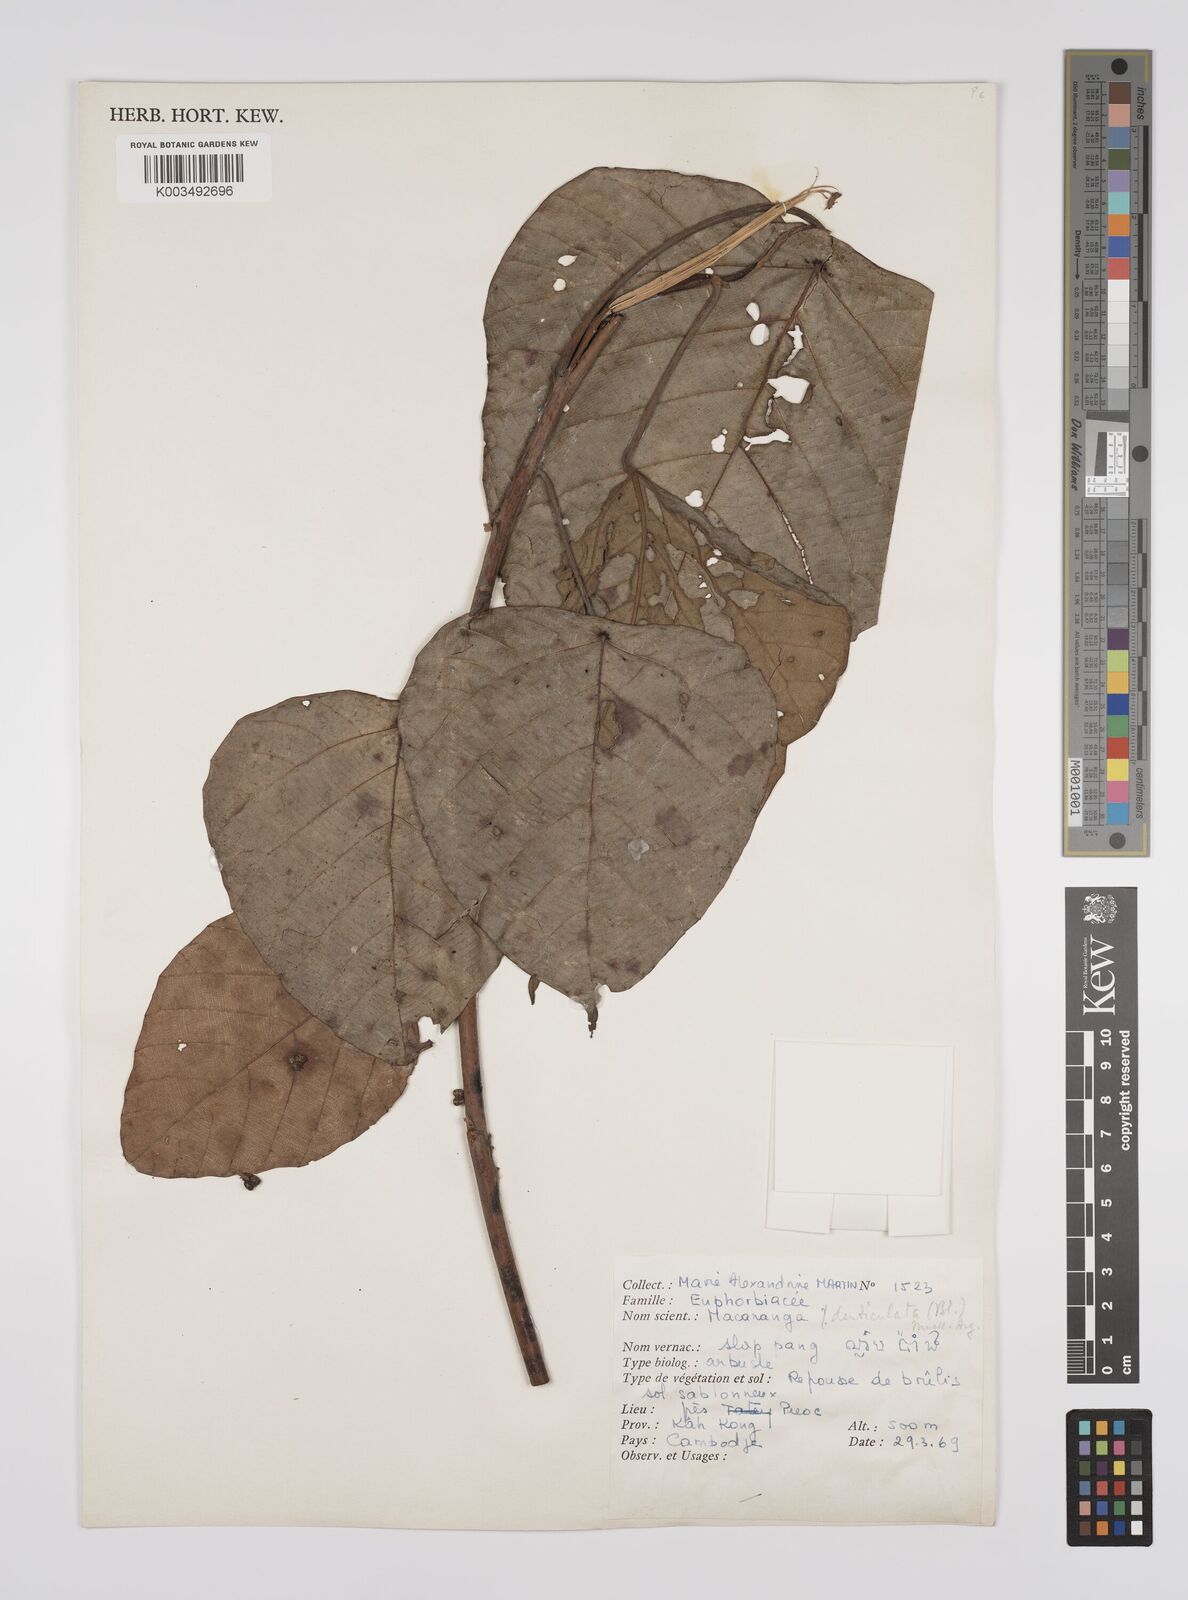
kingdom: Plantae
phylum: Tracheophyta
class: Magnoliopsida
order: Malpighiales
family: Euphorbiaceae
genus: Macaranga
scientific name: Macaranga denticulata
